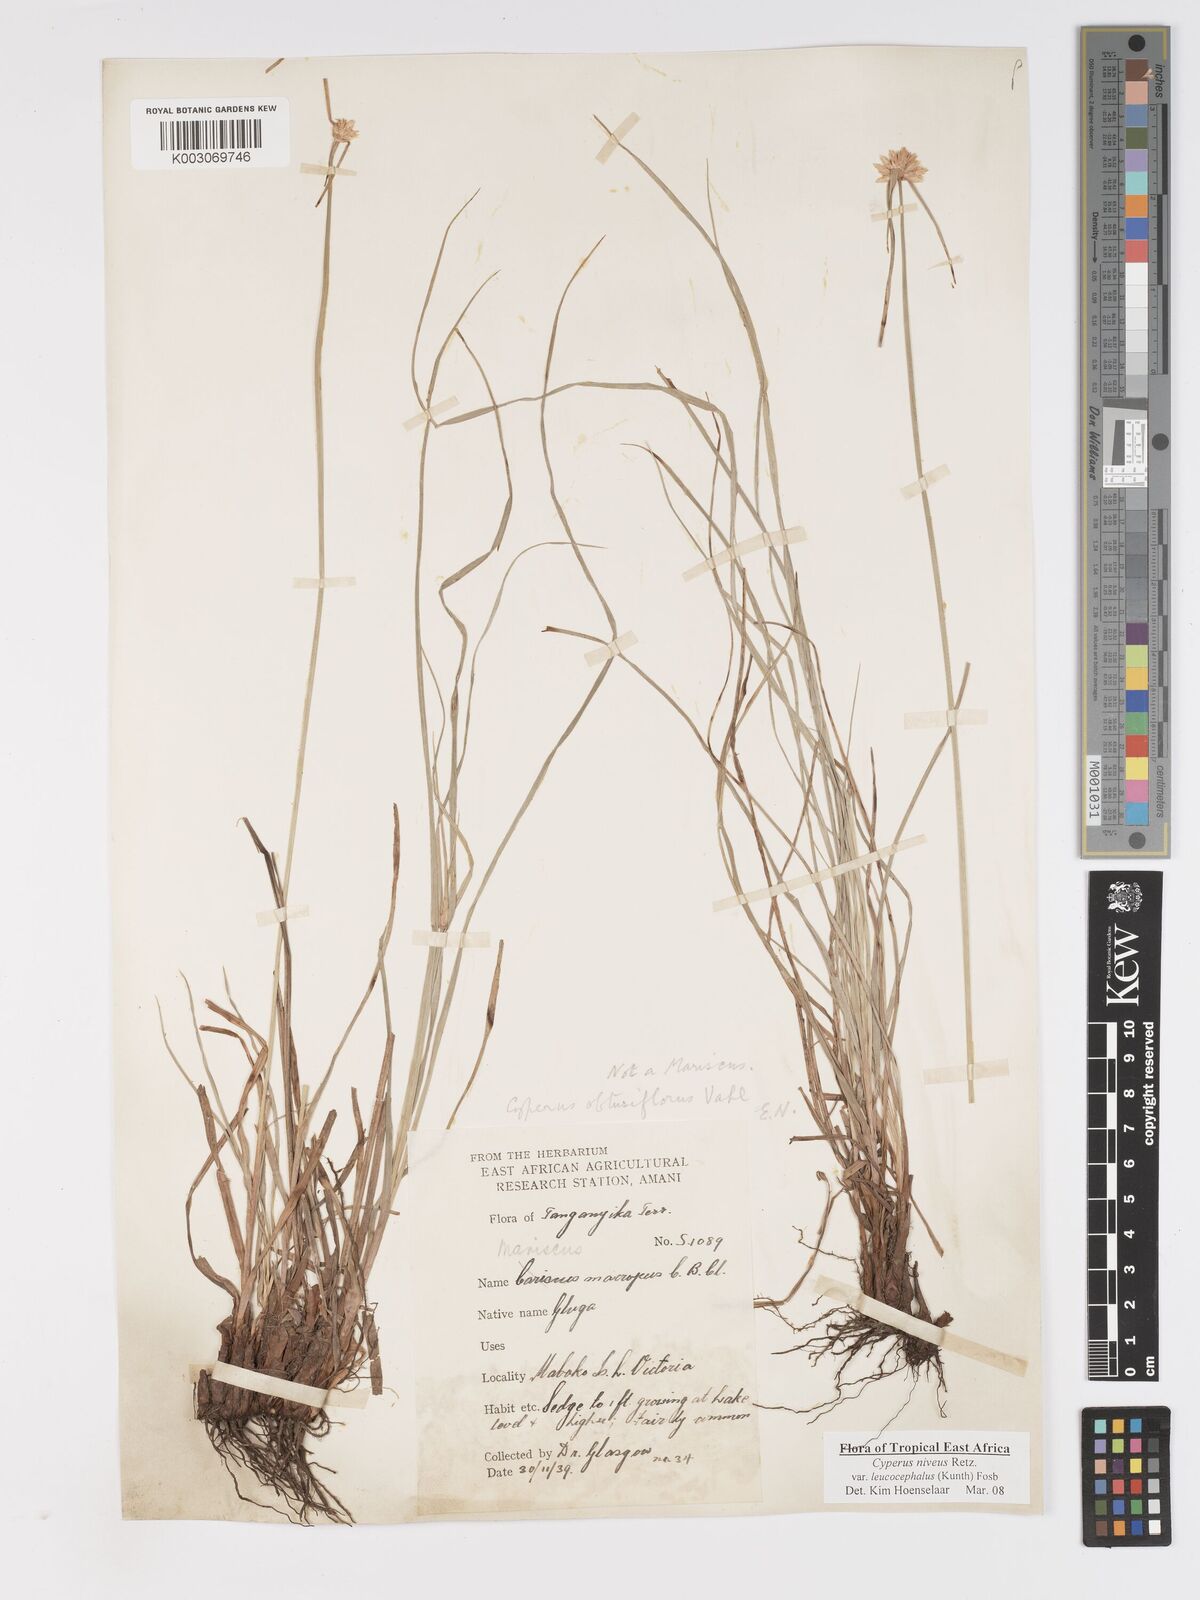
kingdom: Plantae
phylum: Tracheophyta
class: Liliopsida
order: Poales
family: Cyperaceae
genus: Cyperus
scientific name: Cyperus niveus
